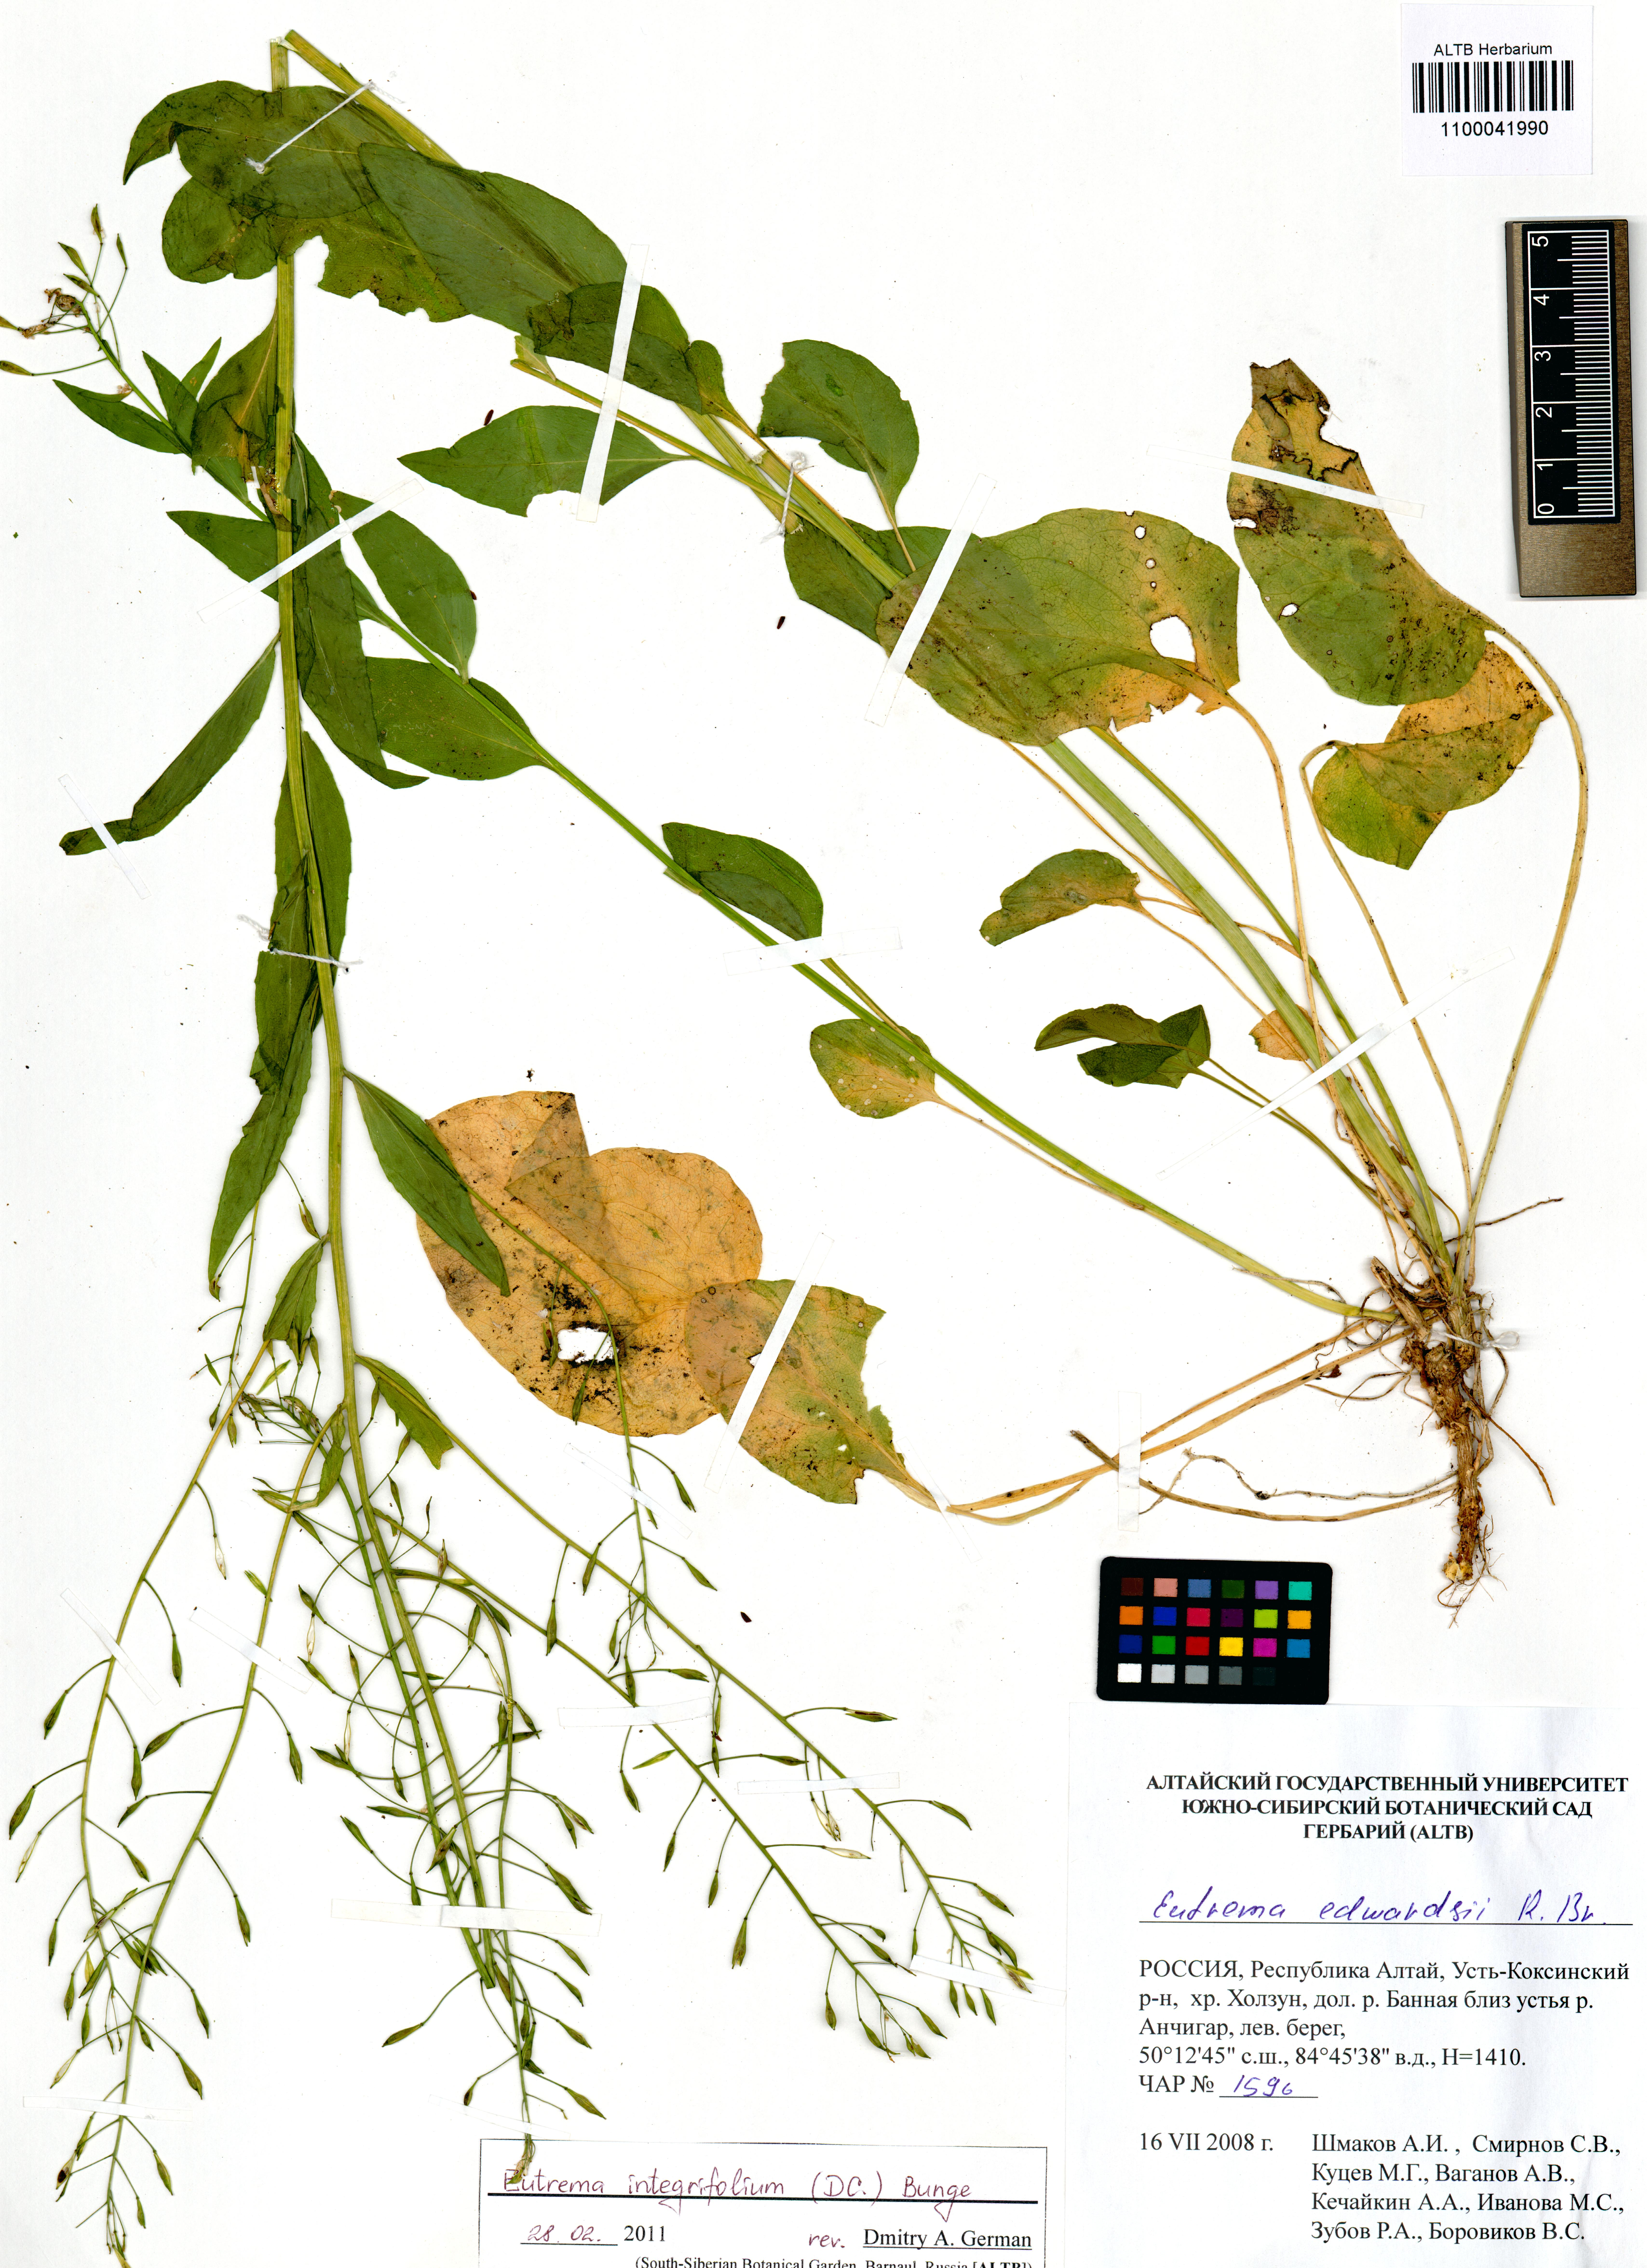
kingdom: Plantae
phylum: Tracheophyta
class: Magnoliopsida
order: Brassicales
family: Brassicaceae
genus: Eutrema
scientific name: Eutrema integrifolium
